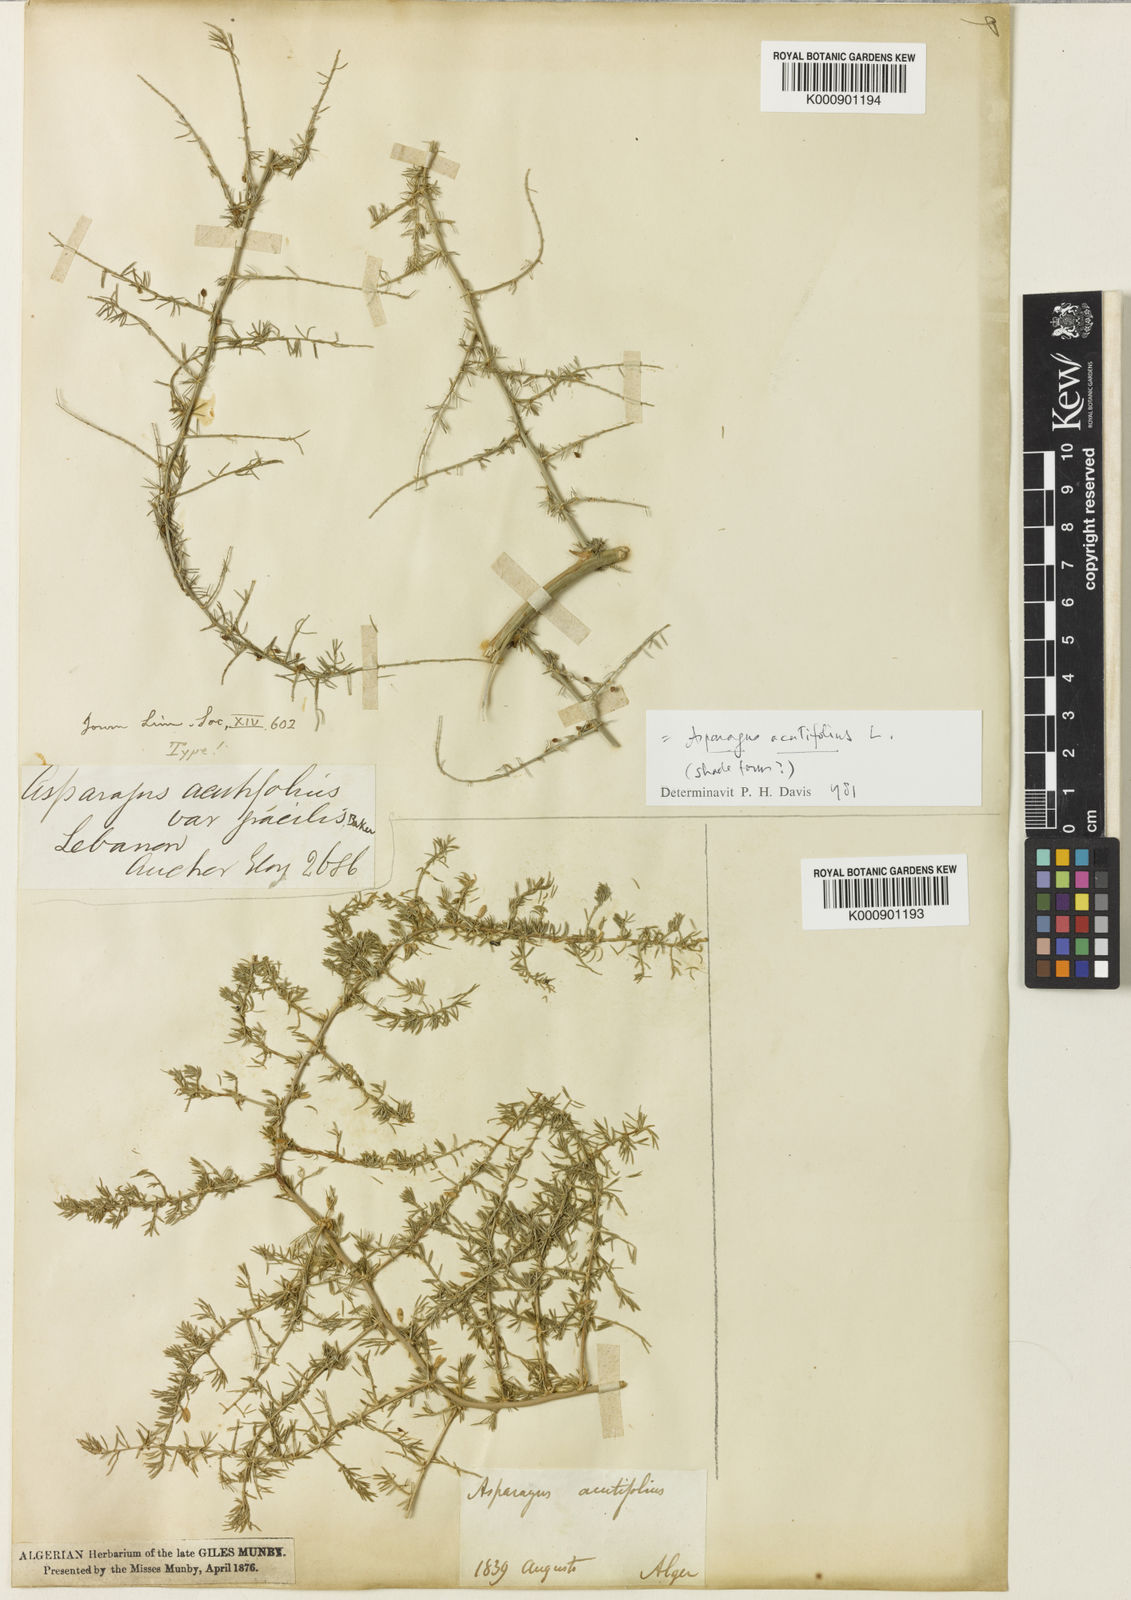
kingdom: Plantae
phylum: Tracheophyta
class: Liliopsida
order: Asparagales
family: Asparagaceae
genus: Asparagus
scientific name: Asparagus acutifolius
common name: Wild asparagus
